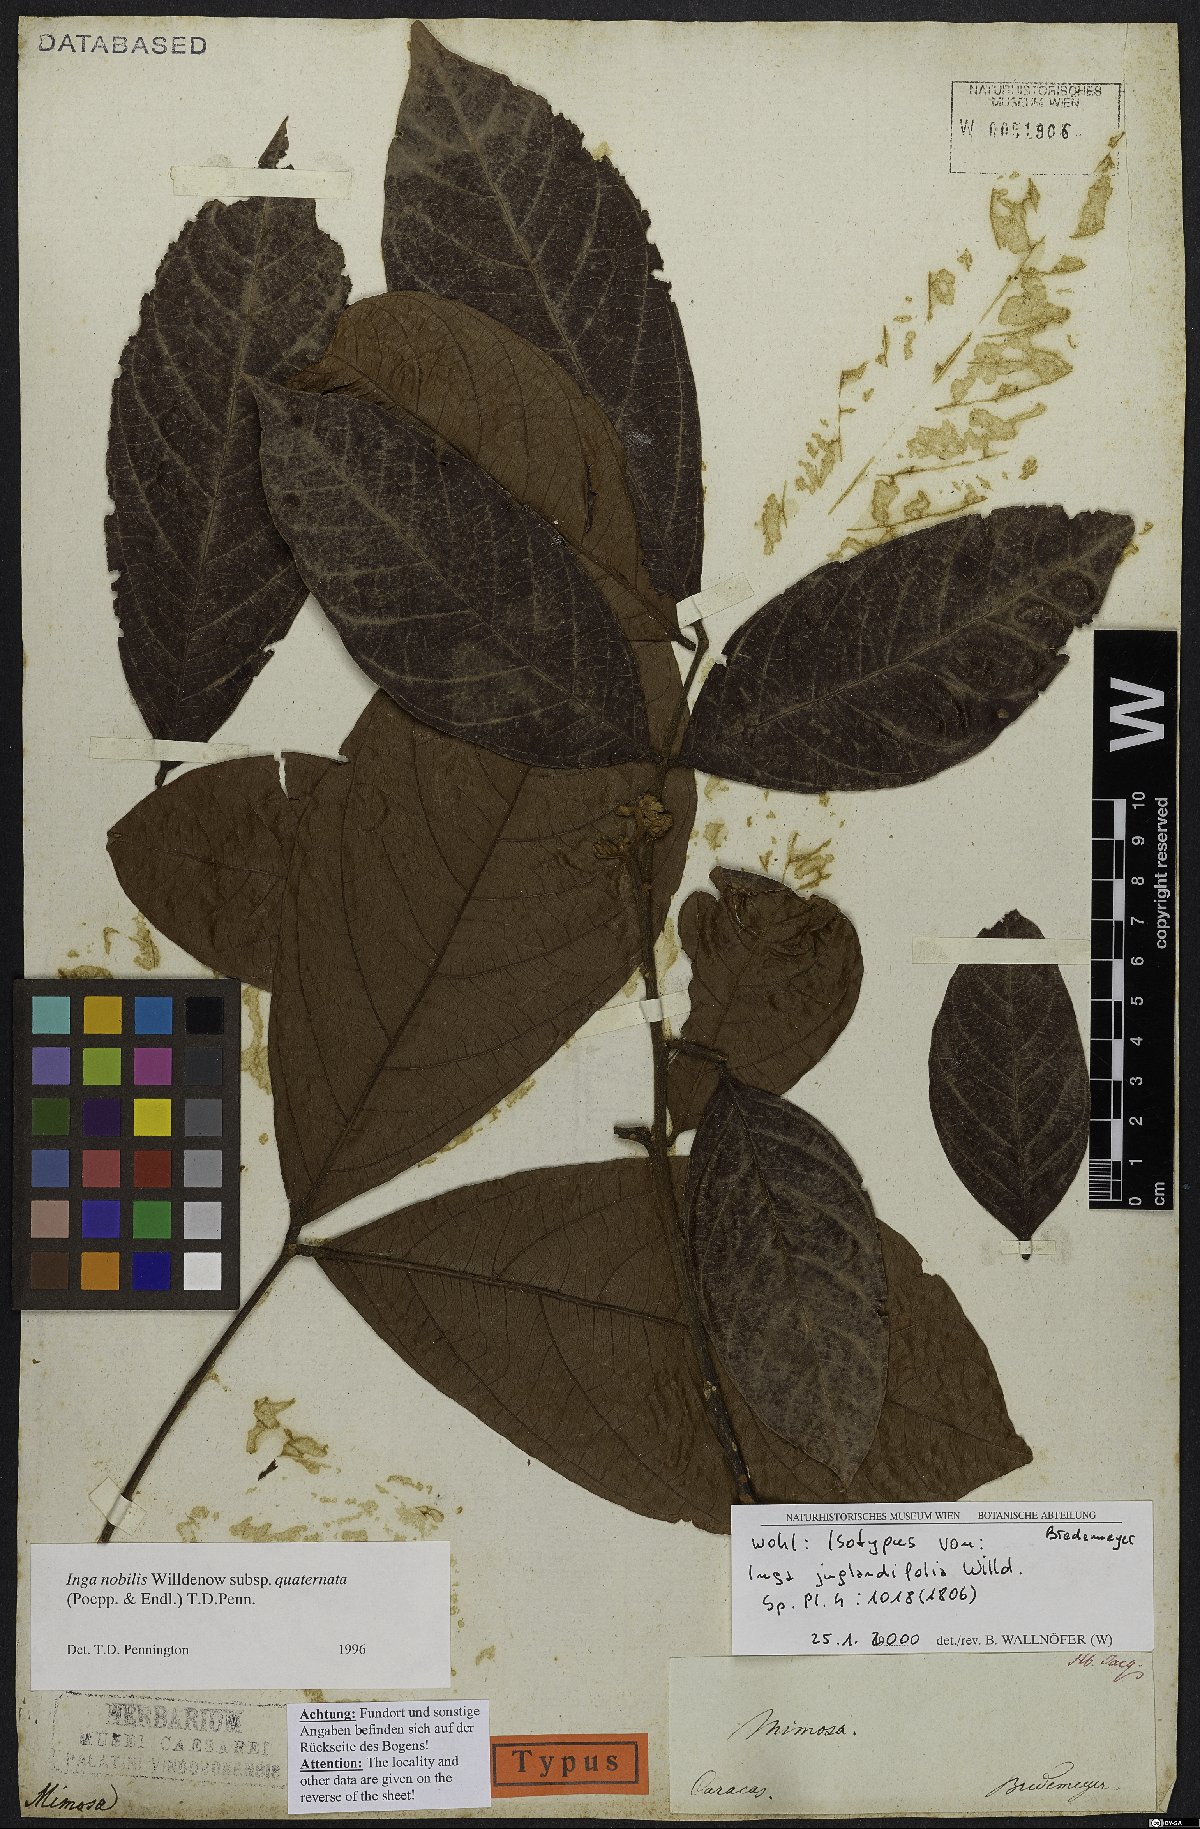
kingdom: Plantae
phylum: Tracheophyta
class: Magnoliopsida
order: Fabales
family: Fabaceae
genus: Inga
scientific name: Inga nobilis
